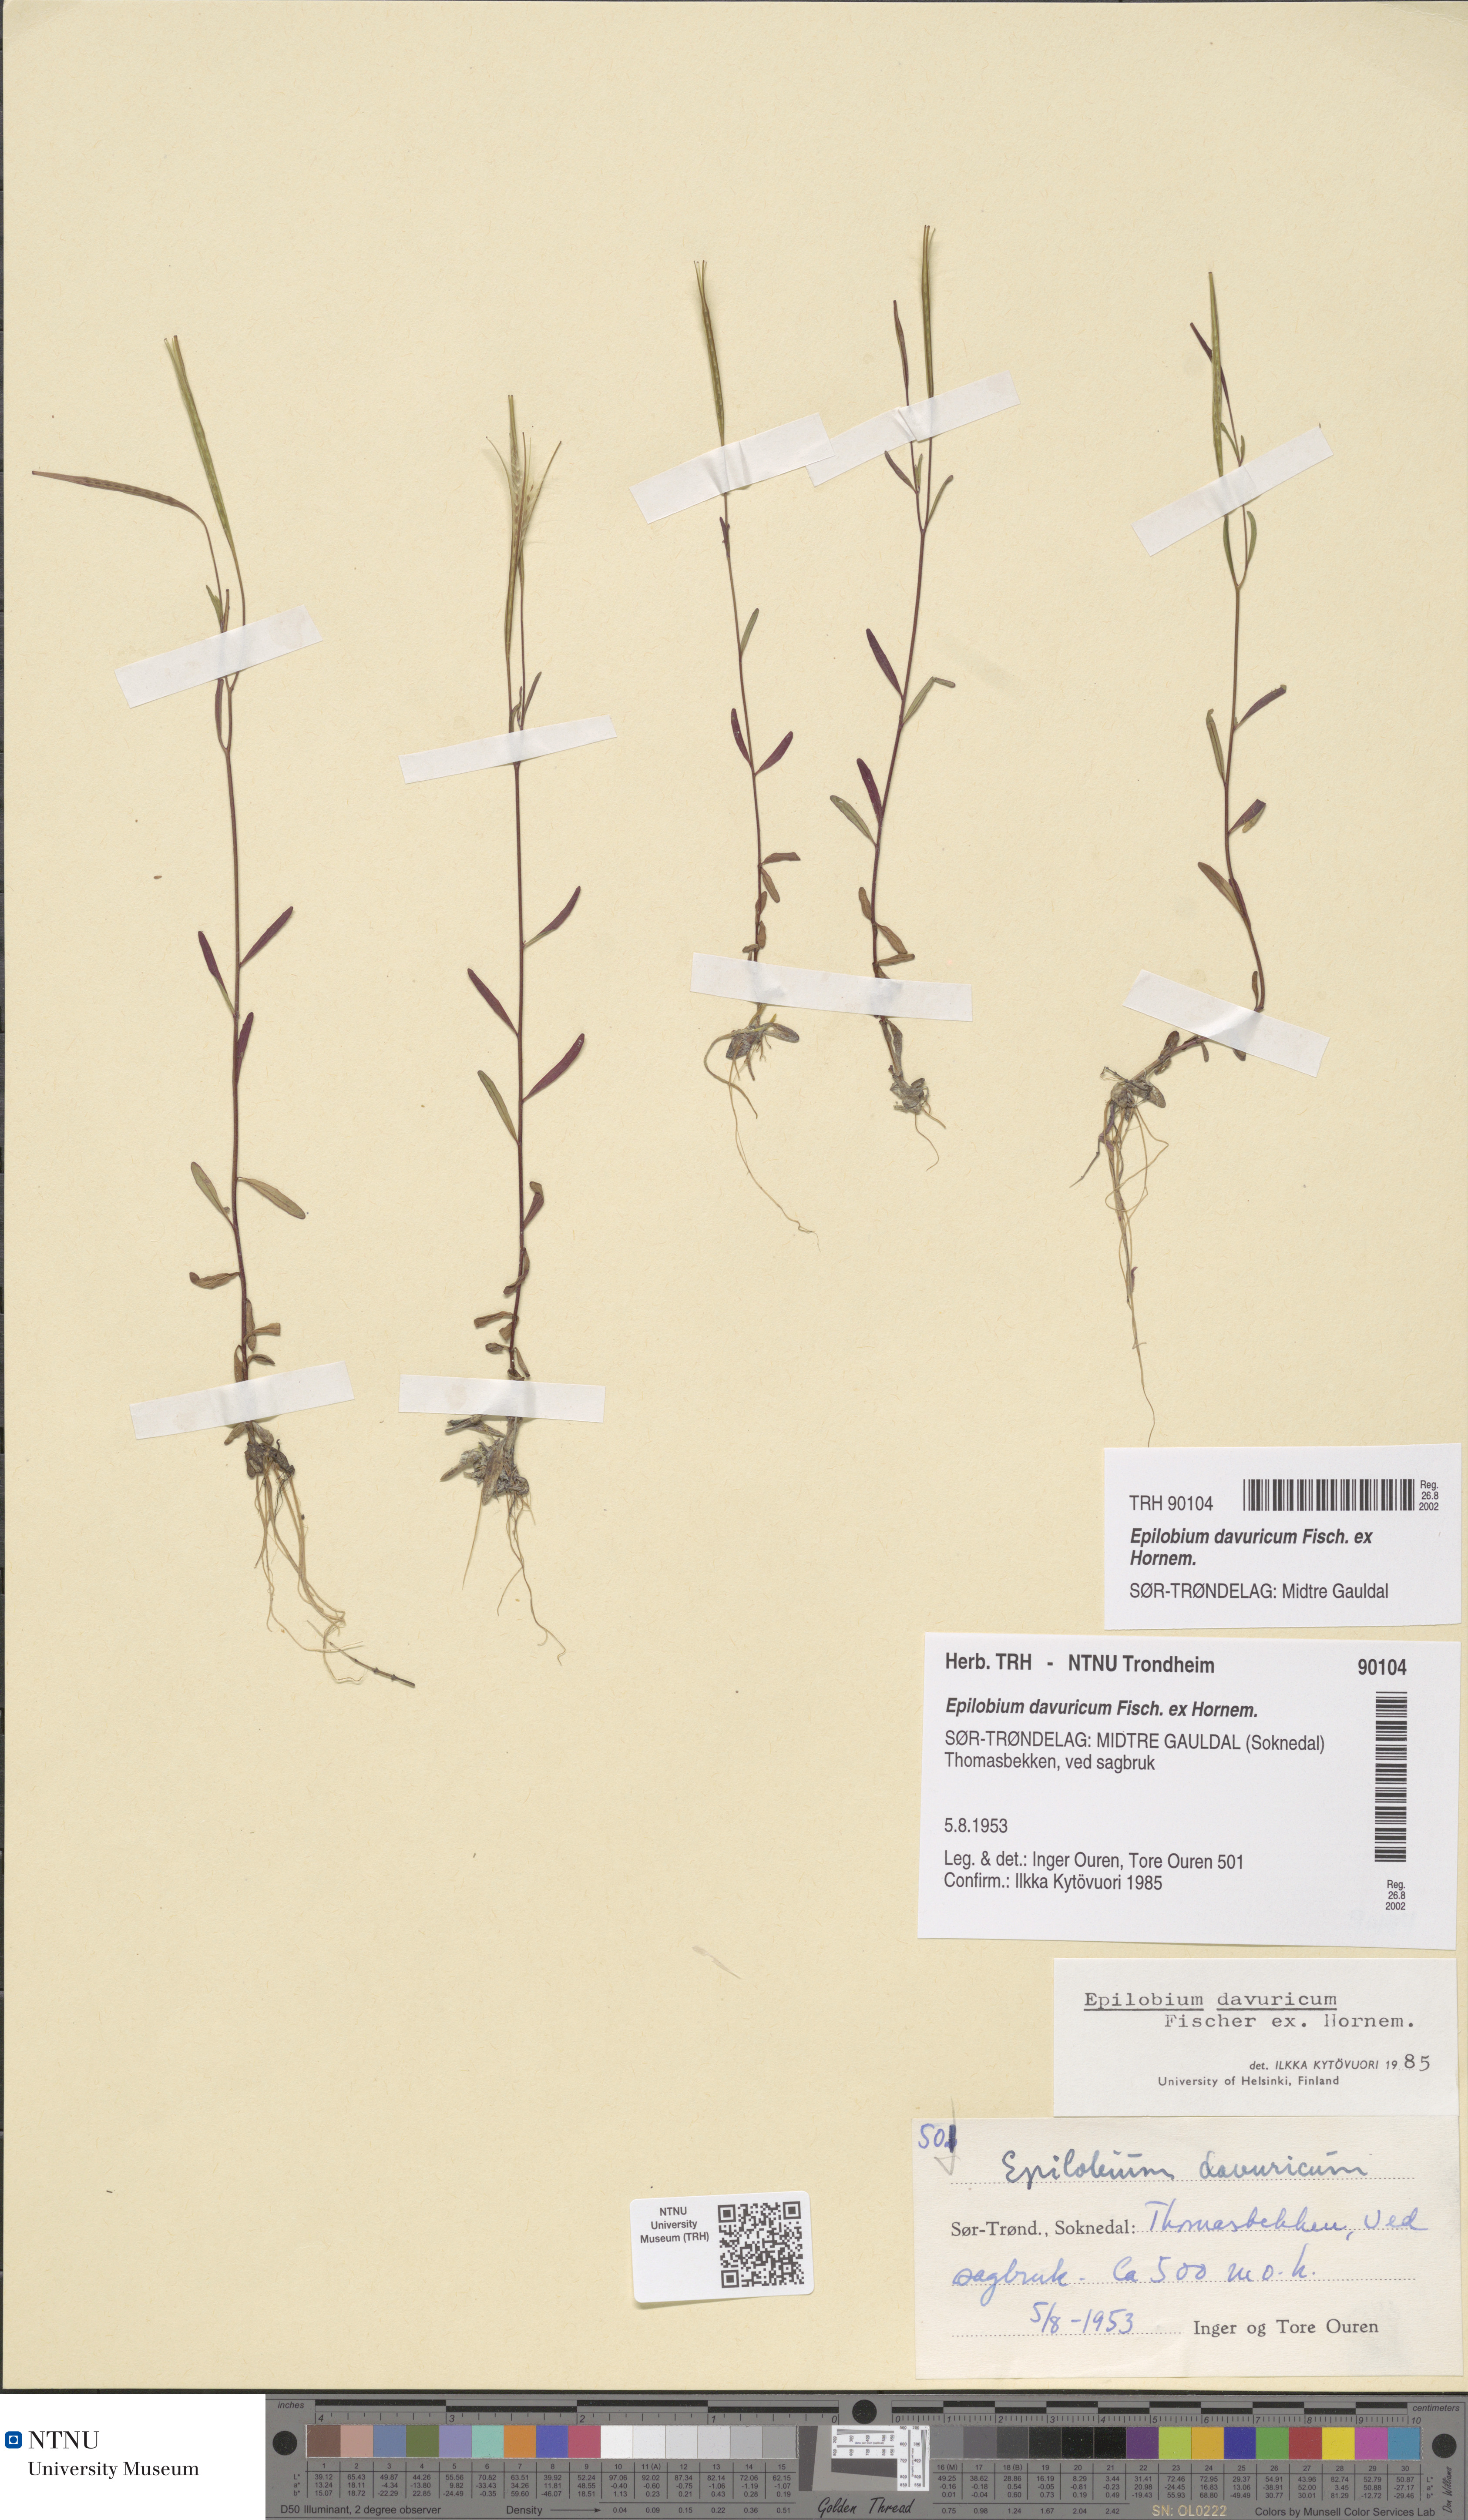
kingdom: Plantae
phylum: Tracheophyta
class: Magnoliopsida
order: Myrtales
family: Onagraceae
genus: Epilobium
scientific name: Epilobium davuricum
